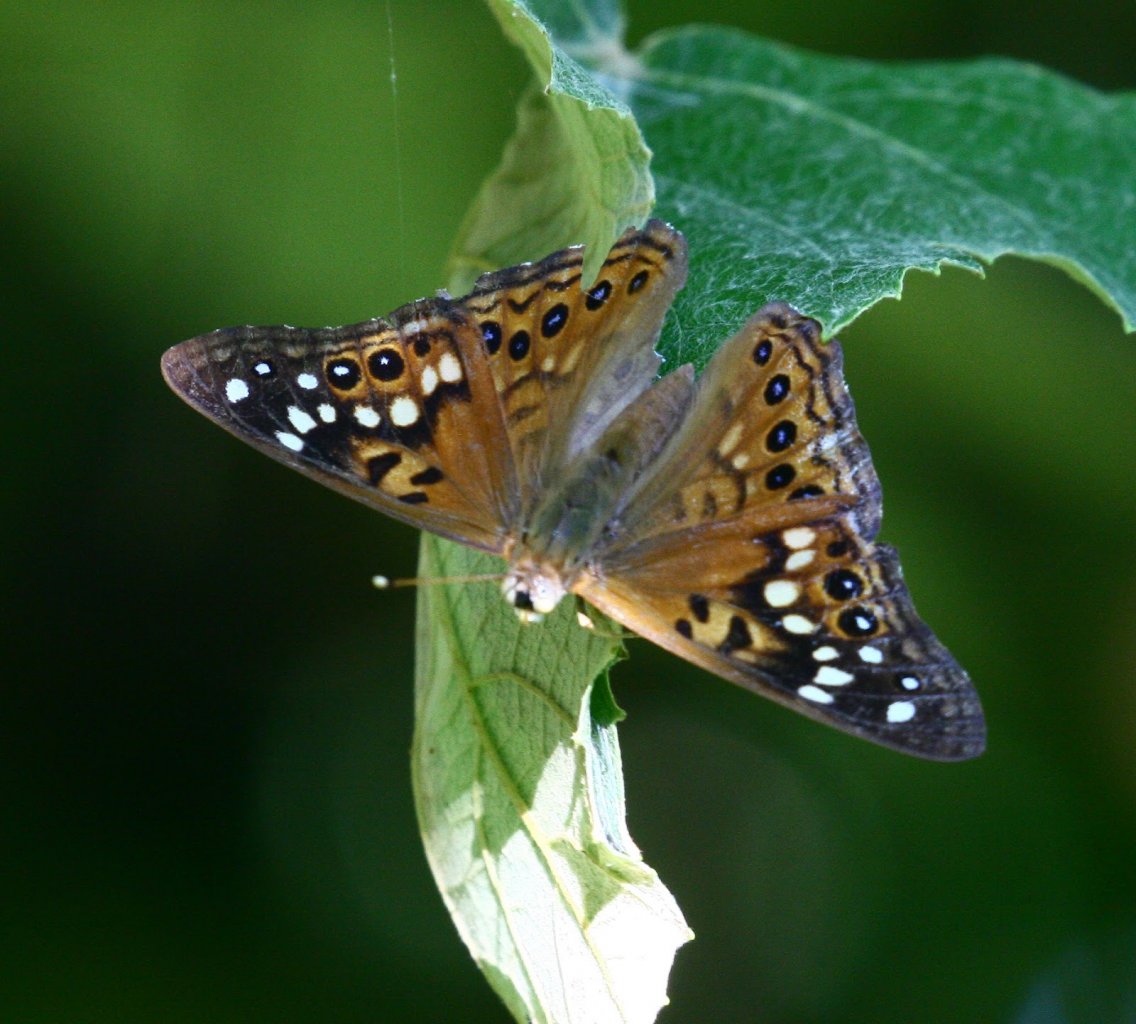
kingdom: Animalia
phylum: Arthropoda
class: Insecta
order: Lepidoptera
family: Nymphalidae
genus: Asterocampa
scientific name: Asterocampa celtis
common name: Hackberry Emperor
